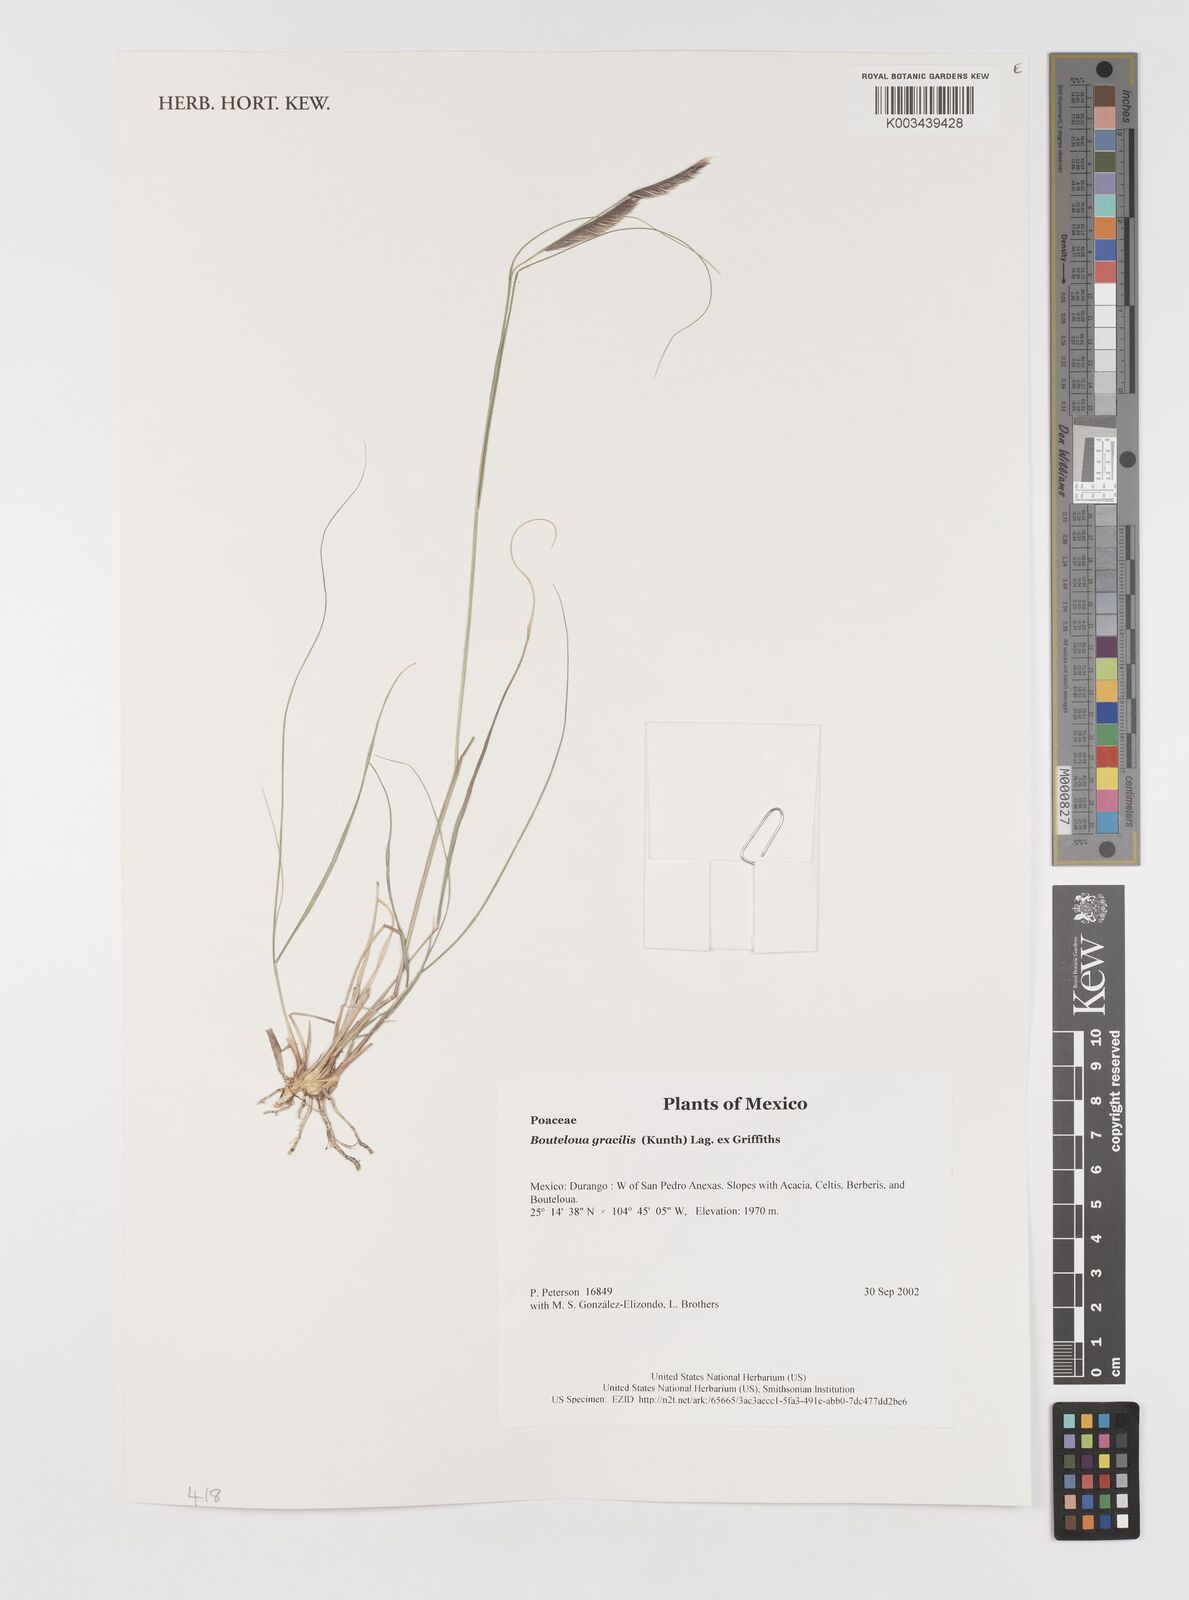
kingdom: Plantae
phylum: Tracheophyta
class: Liliopsida
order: Poales
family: Poaceae
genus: Bouteloua
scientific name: Bouteloua aristidoides
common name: Needle grama
